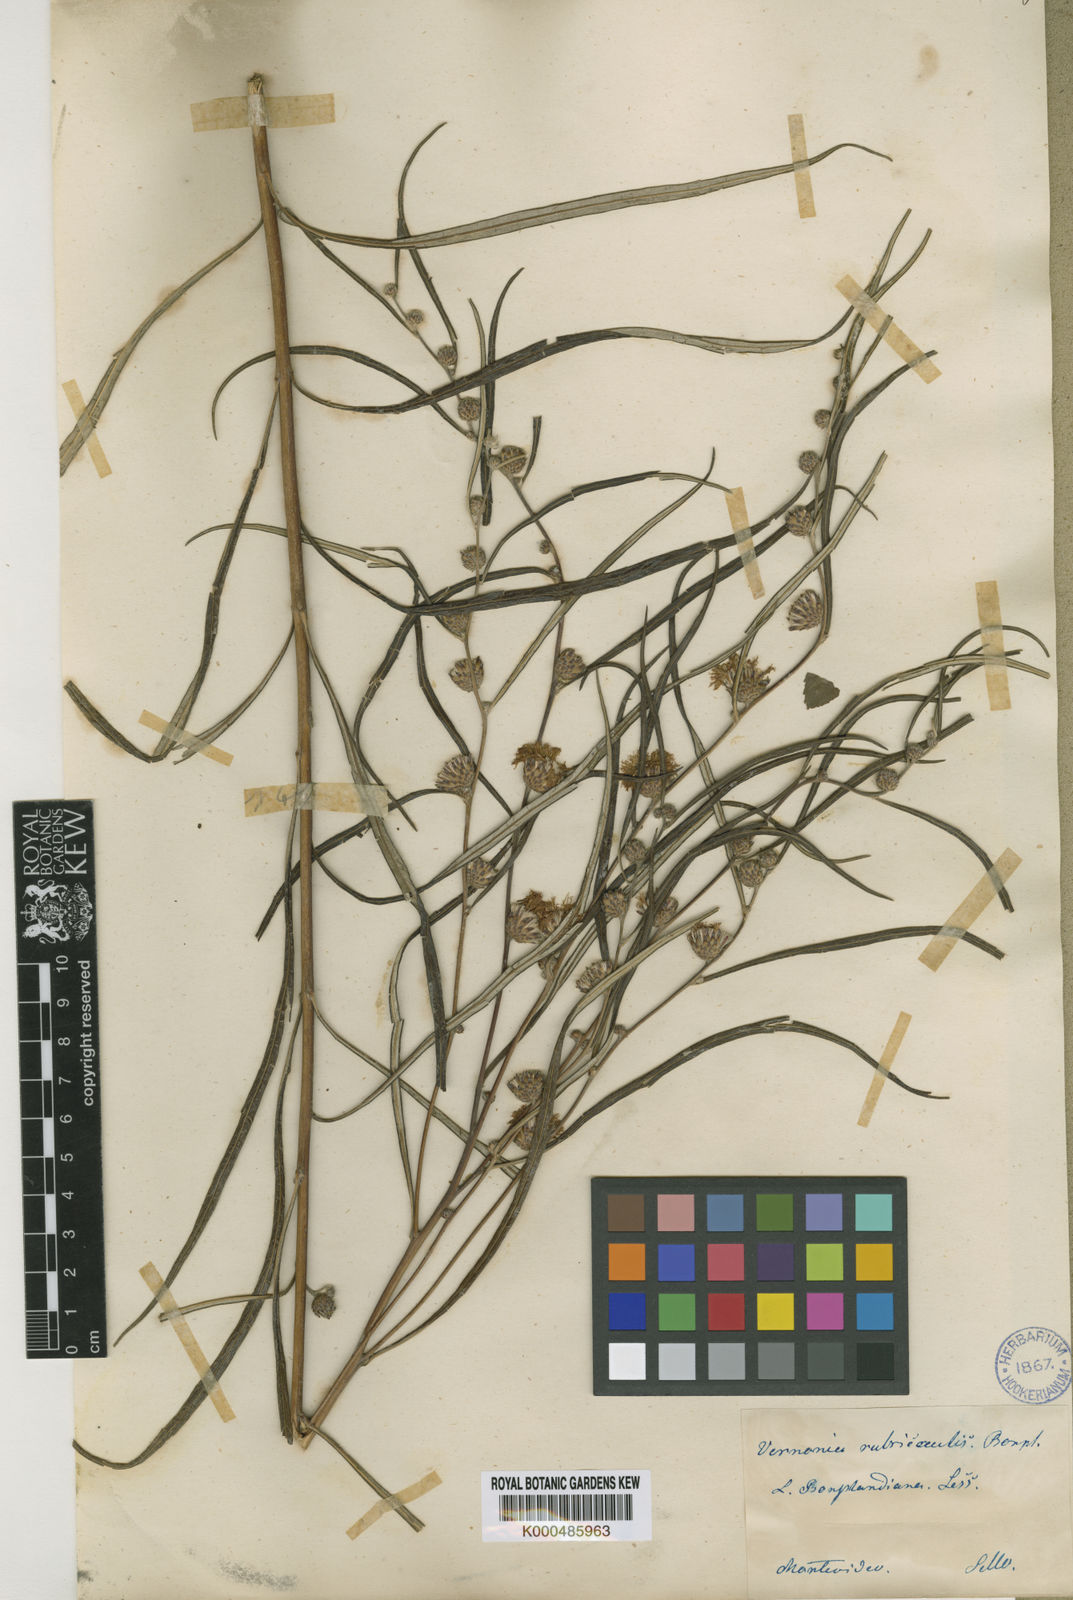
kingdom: Plantae
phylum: Tracheophyta
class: Magnoliopsida
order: Asterales
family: Asteraceae
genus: Lessingianthus
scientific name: Lessingianthus rubricaulis
